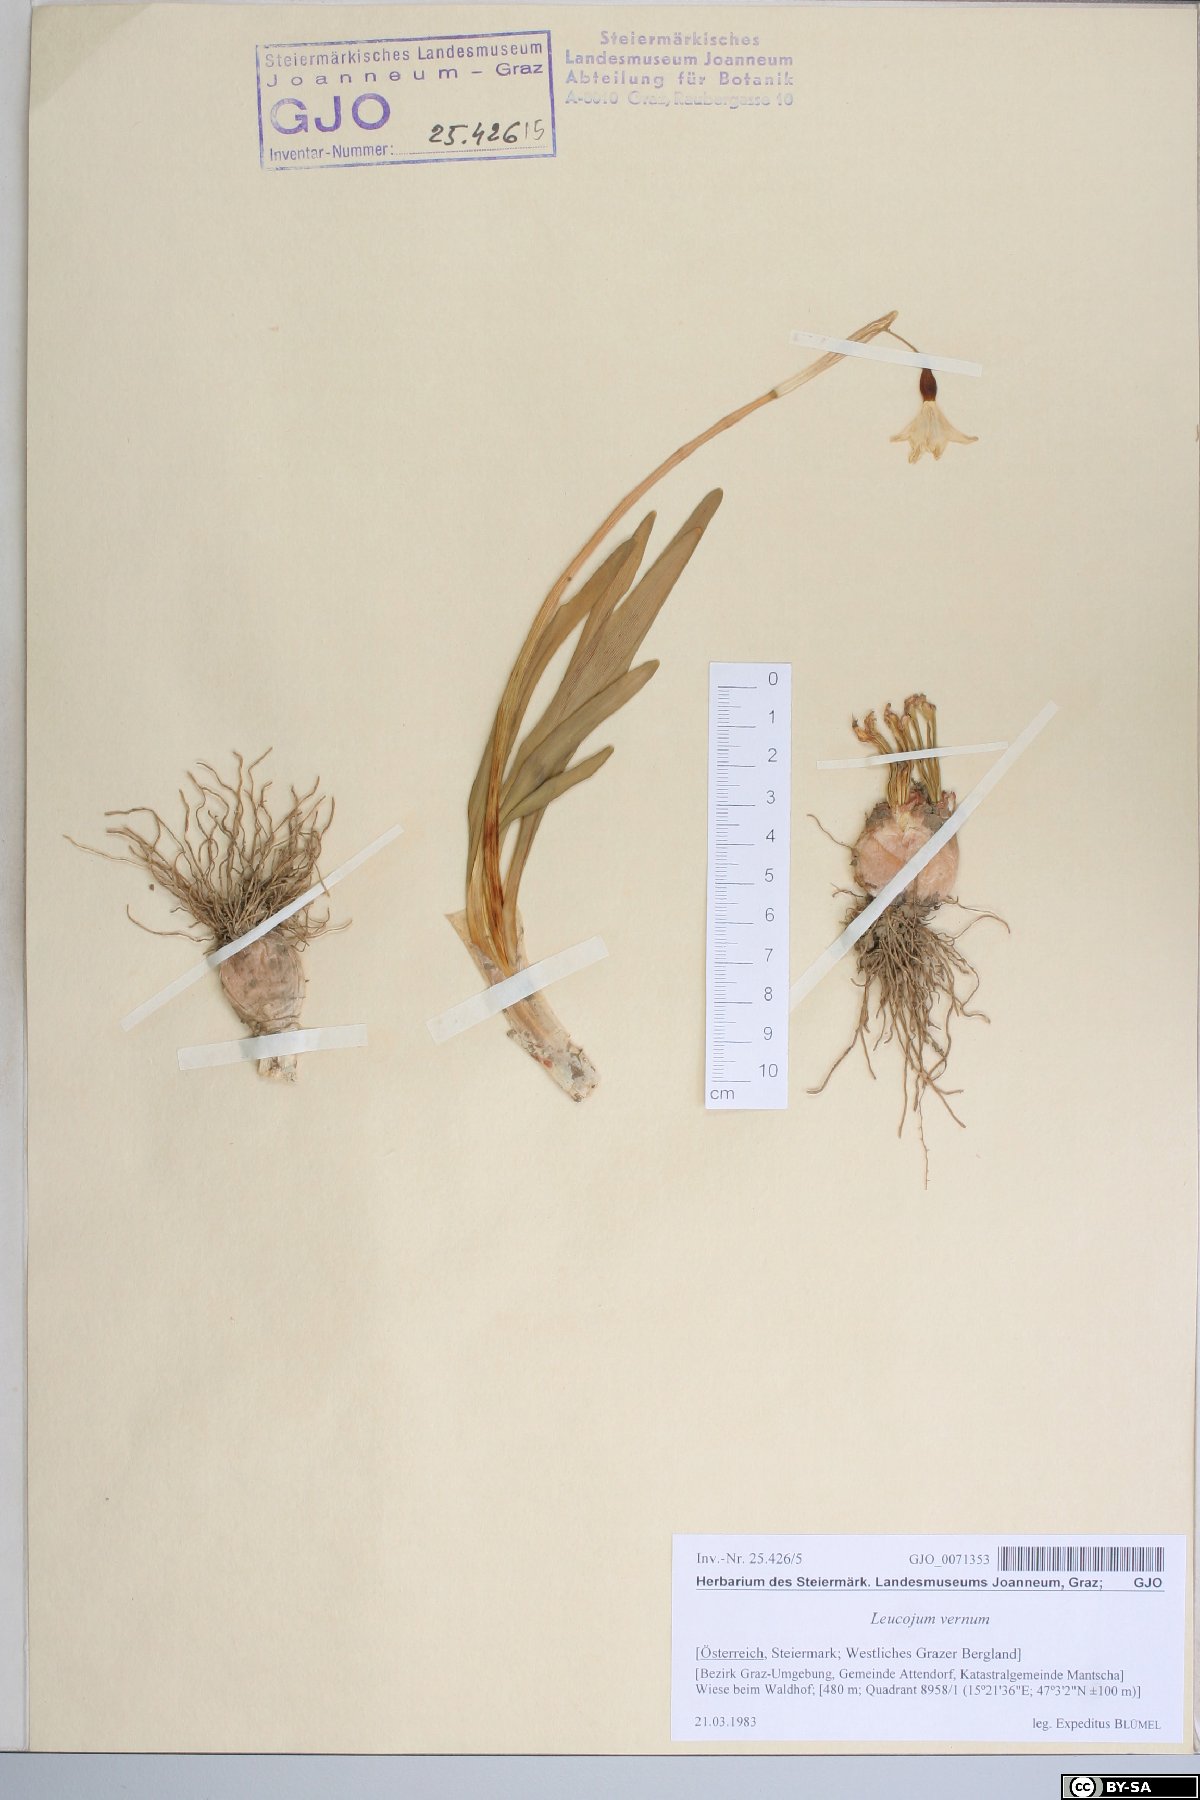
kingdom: Plantae
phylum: Tracheophyta
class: Liliopsida
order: Asparagales
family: Amaryllidaceae
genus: Leucojum
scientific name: Leucojum vernum
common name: Spring snowflake
